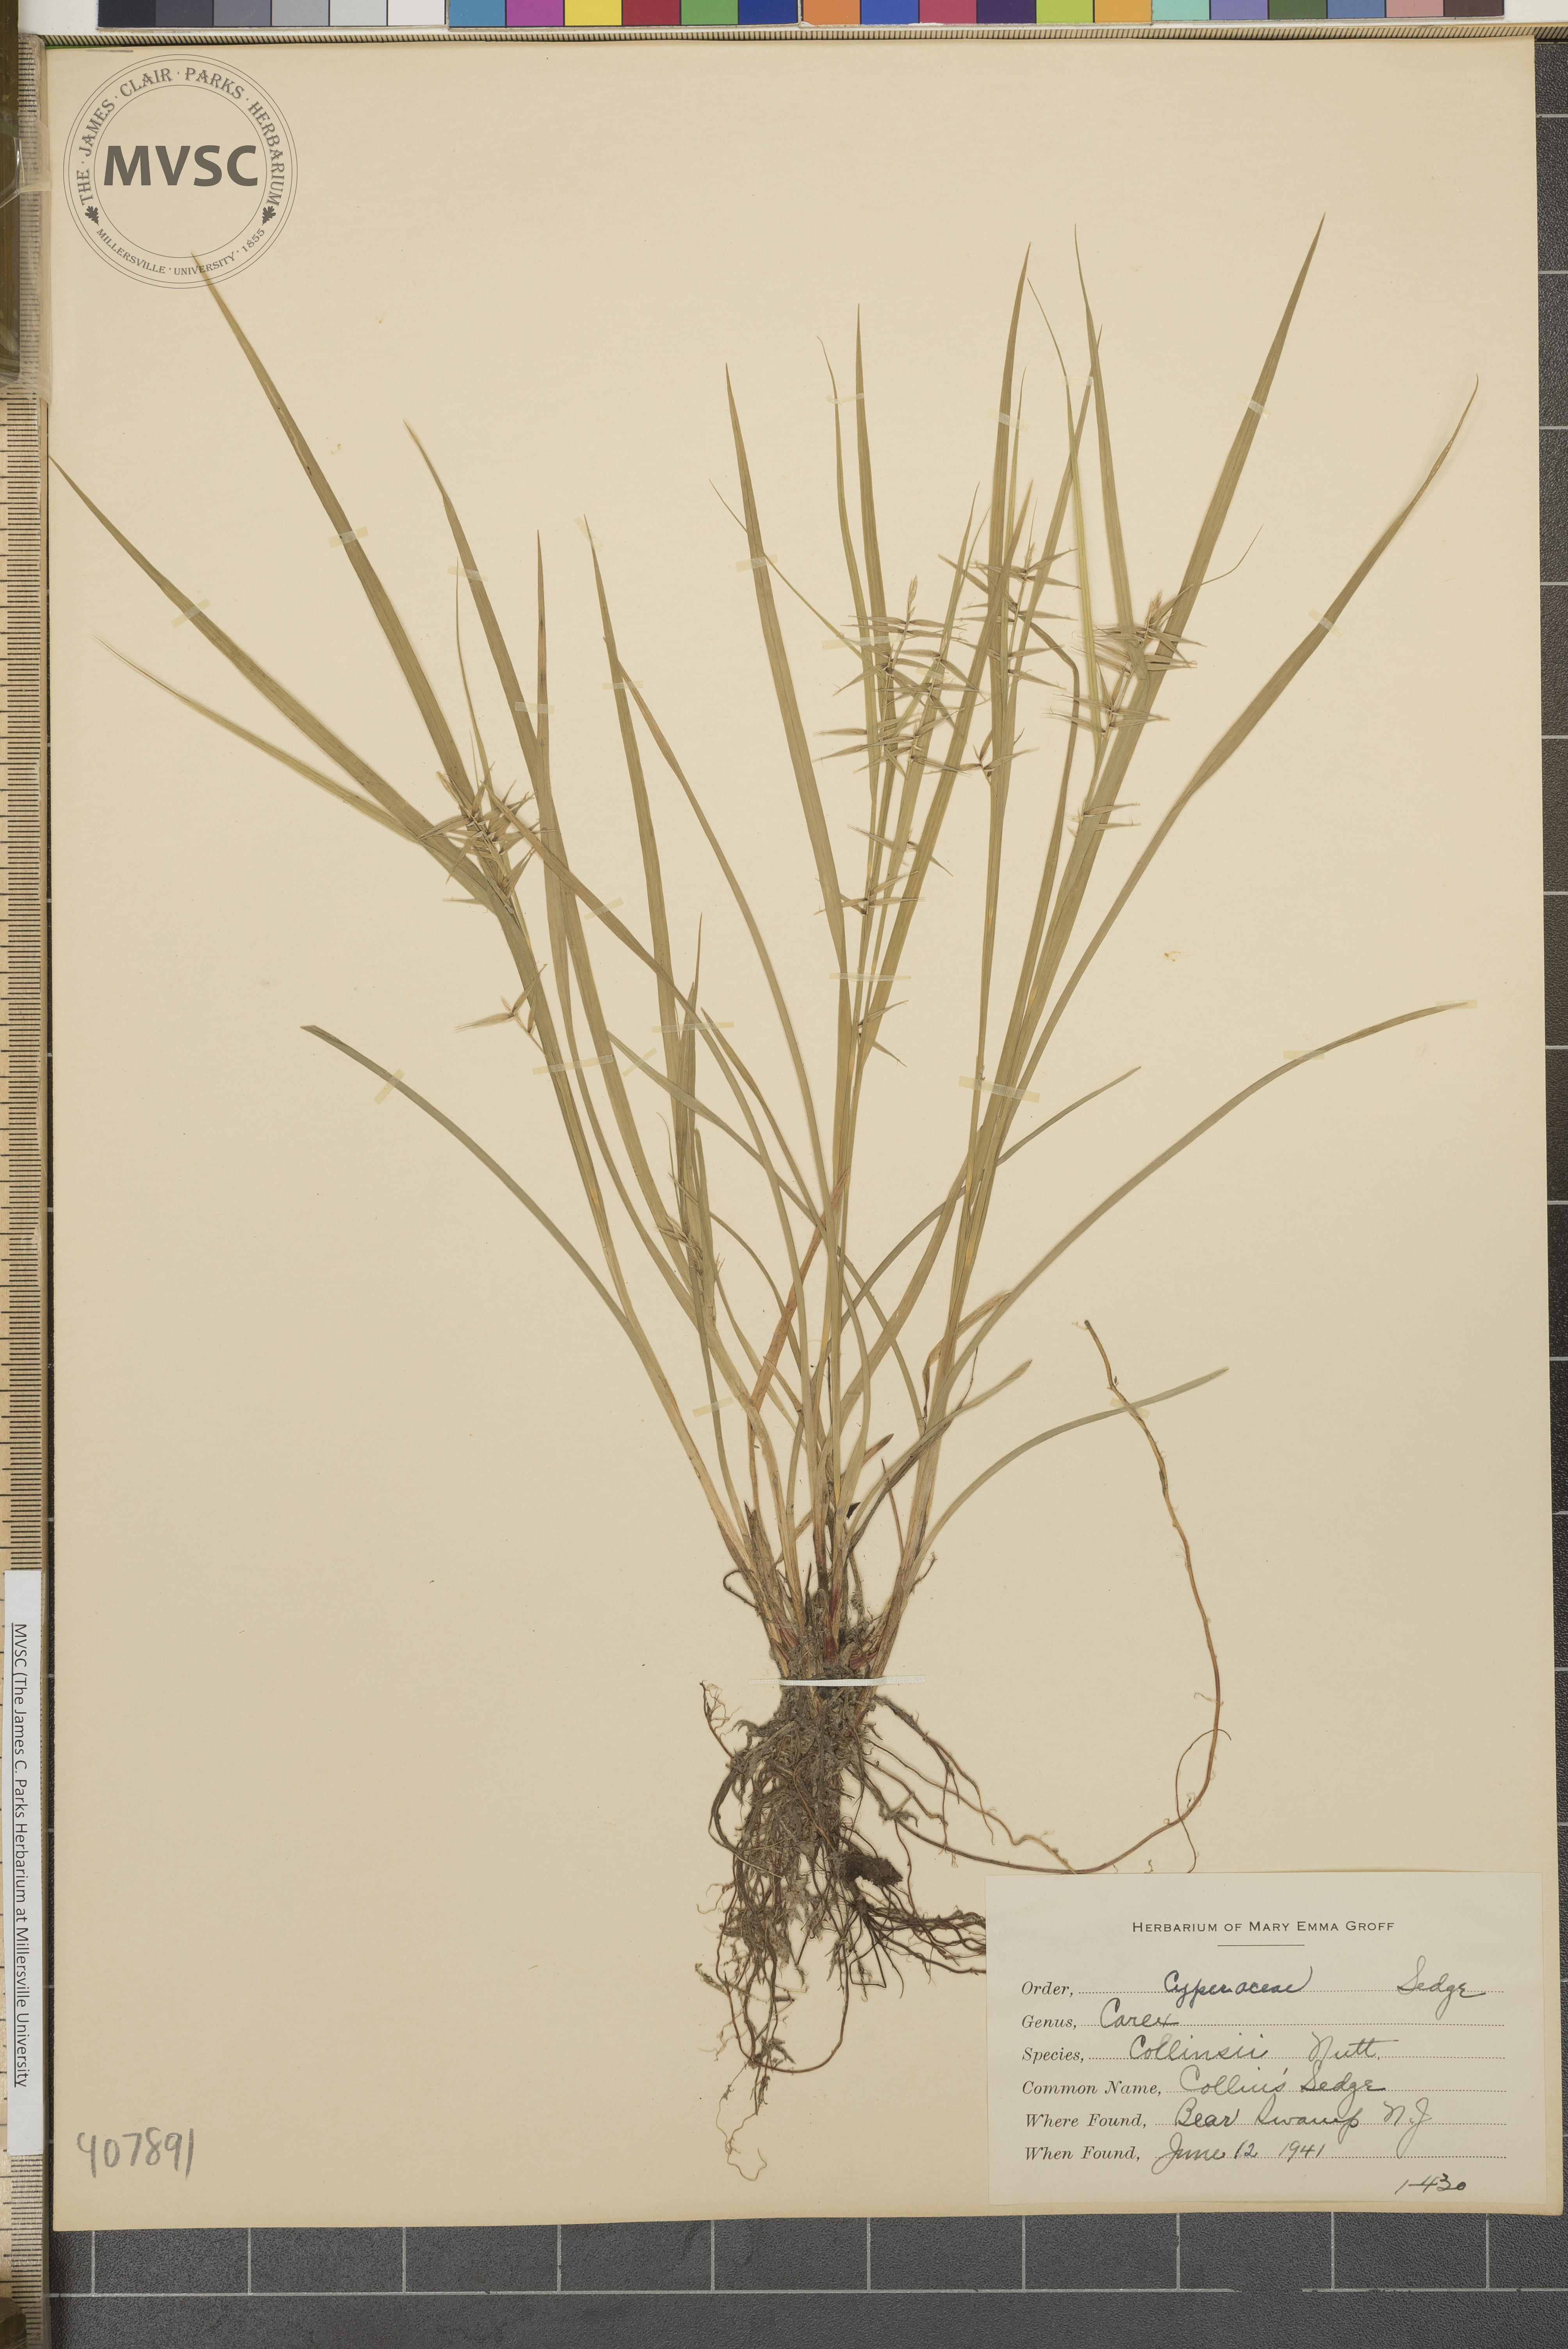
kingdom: Plantae
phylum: Tracheophyta
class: Liliopsida
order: Poales
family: Cyperaceae
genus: Carex
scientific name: Carex collinsii
